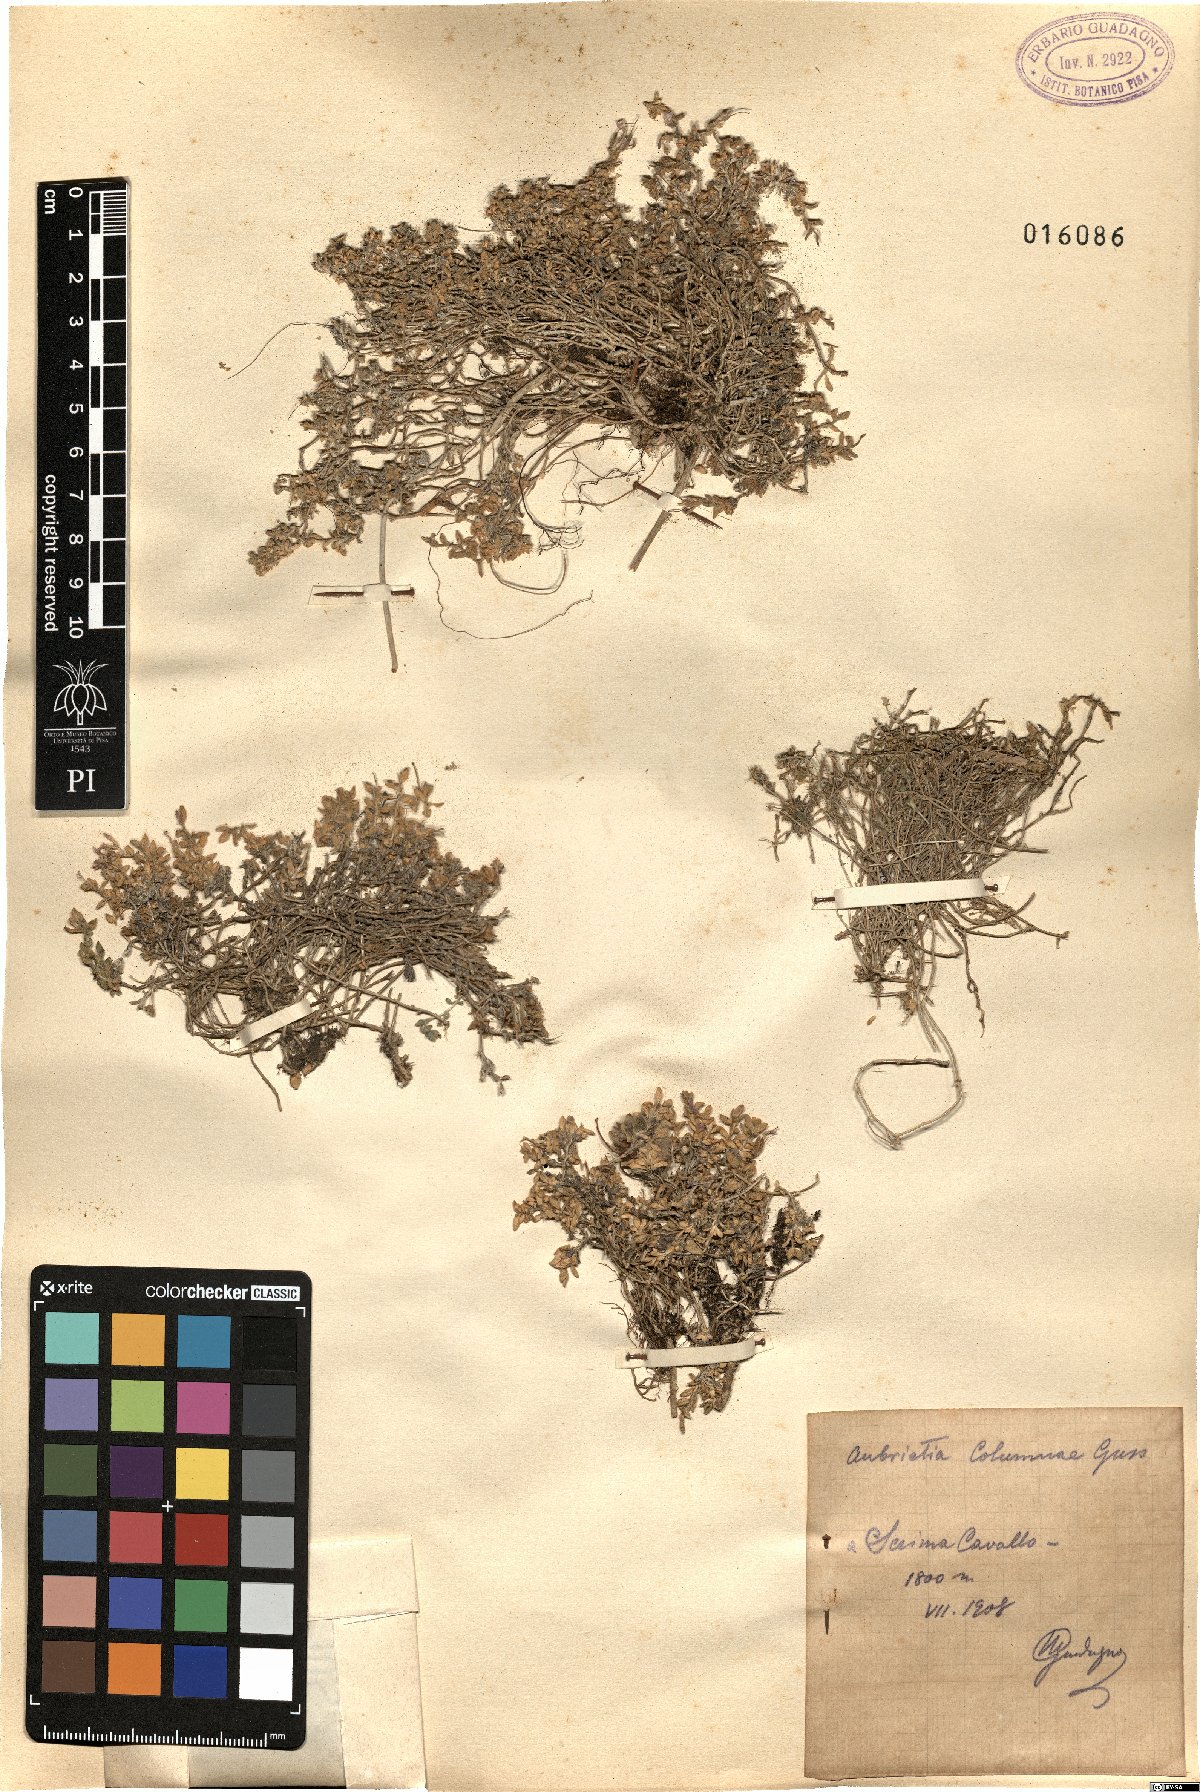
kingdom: Plantae
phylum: Tracheophyta
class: Magnoliopsida
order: Brassicales
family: Brassicaceae
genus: Aubrieta
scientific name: Aubrieta columnae
